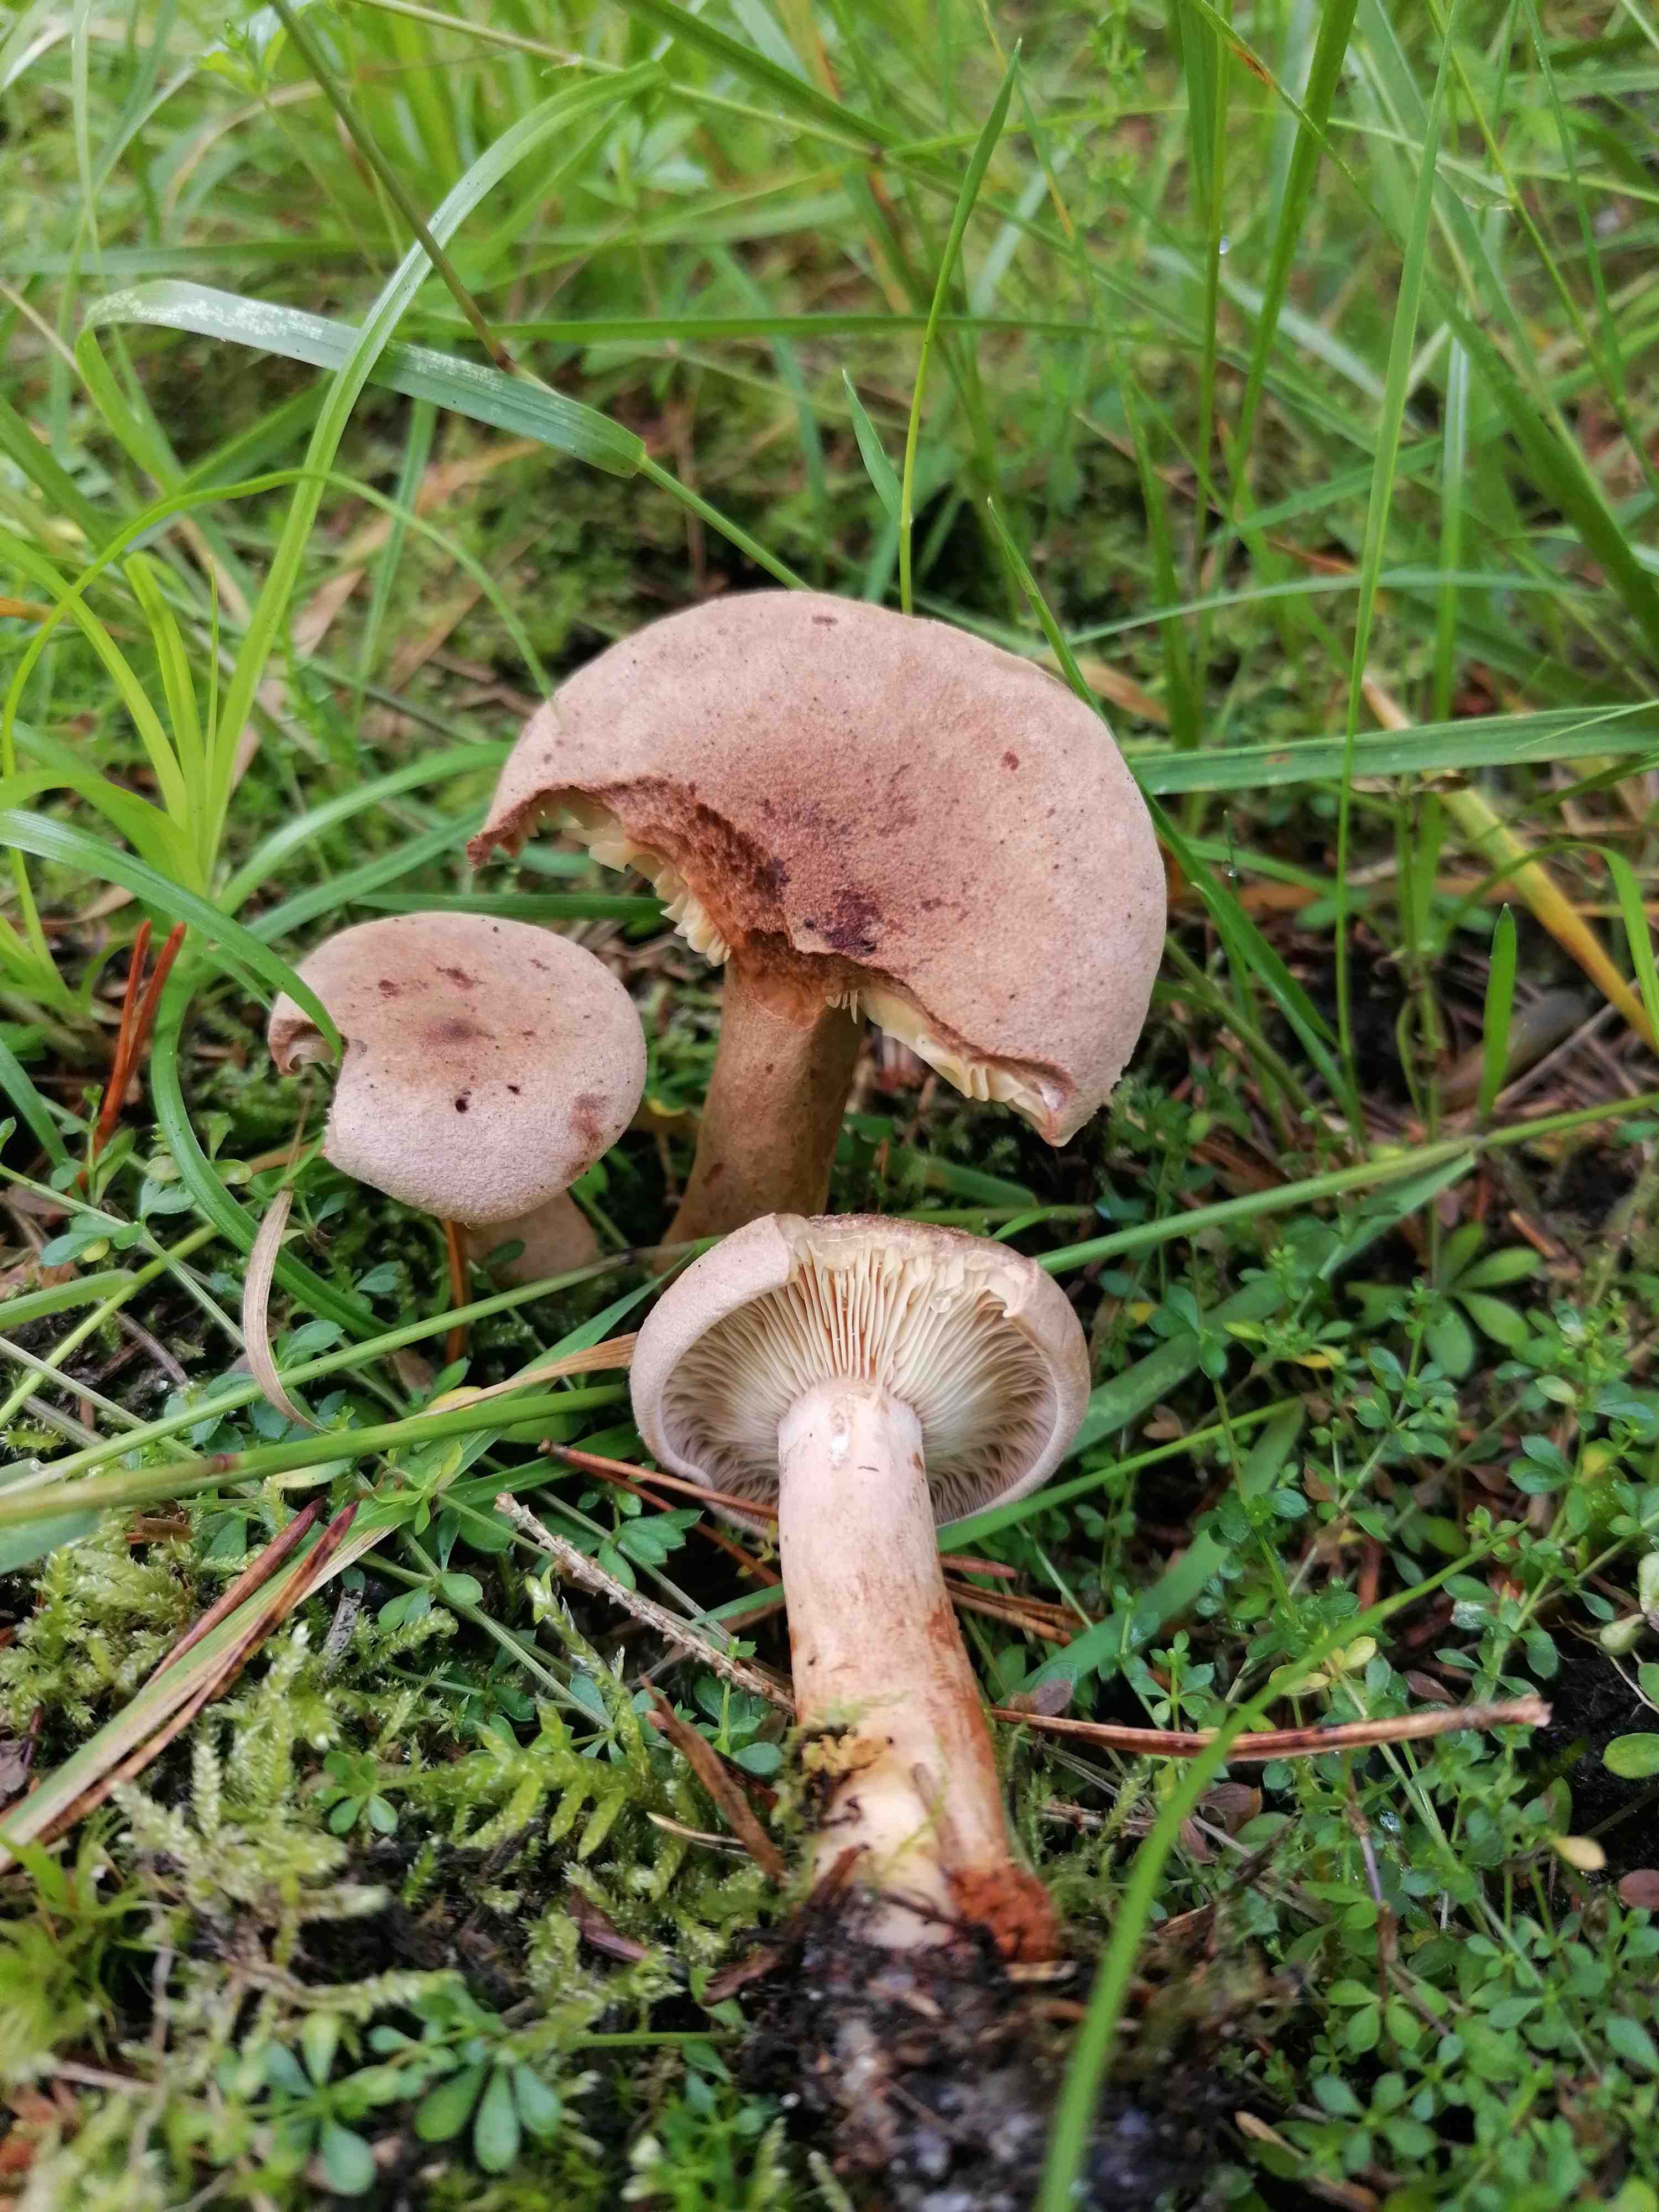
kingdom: Fungi
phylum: Basidiomycota
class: Agaricomycetes
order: Russulales
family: Russulaceae
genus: Lactarius
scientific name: Lactarius helvus
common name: mose-mælkehat
